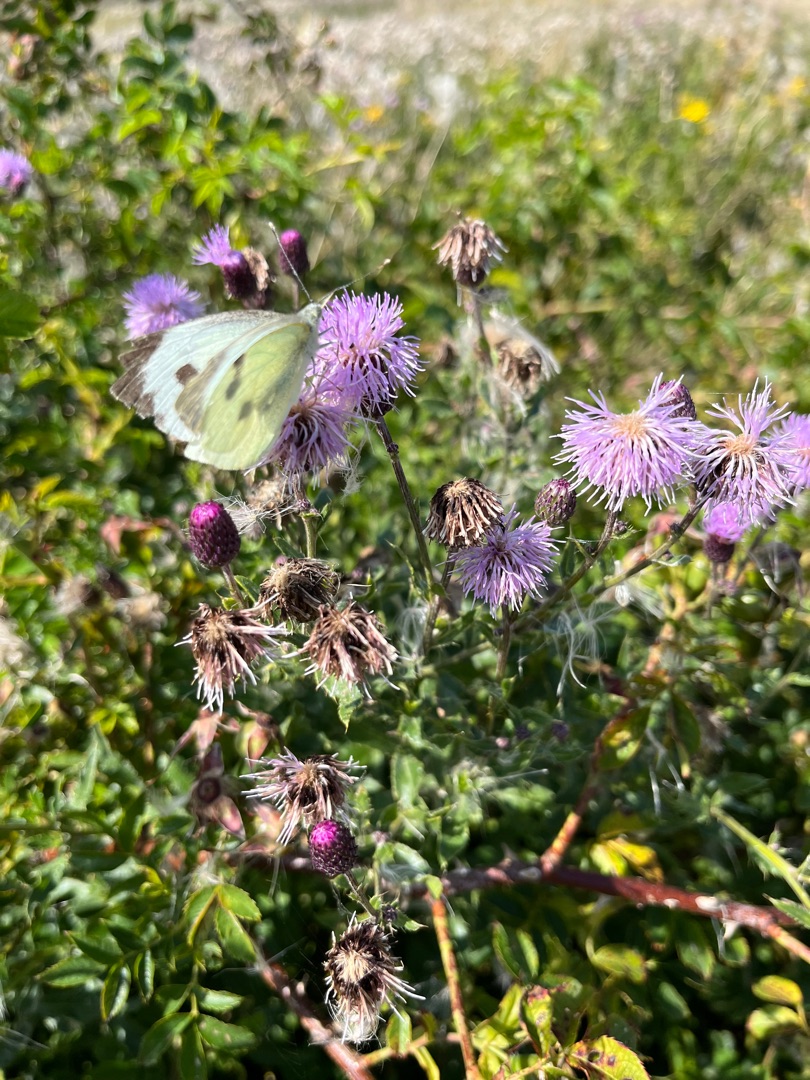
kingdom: Animalia
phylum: Arthropoda
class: Insecta
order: Lepidoptera
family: Pieridae
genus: Pieris
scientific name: Pieris brassicae
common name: Stor kålsommerfugl
